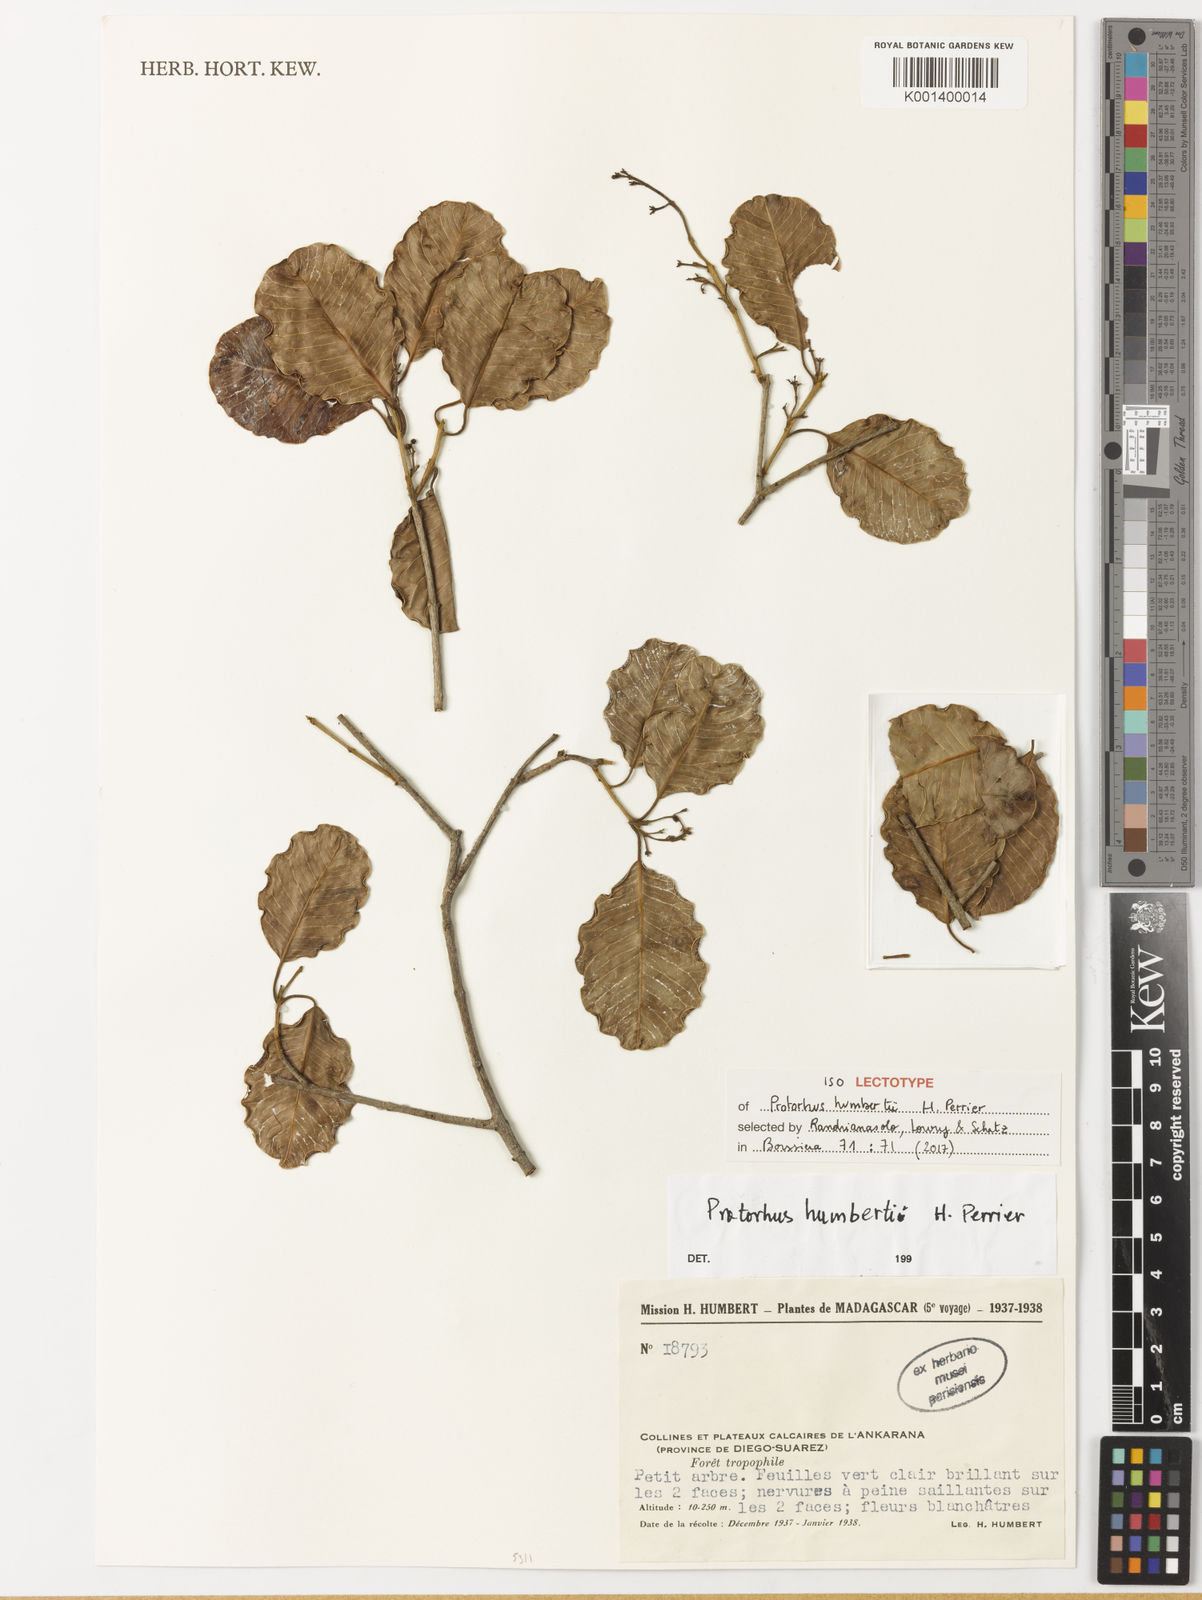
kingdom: Plantae
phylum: Tracheophyta
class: Magnoliopsida
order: Sapindales
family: Anacardiaceae
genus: Abrahamia
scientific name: Abrahamia
